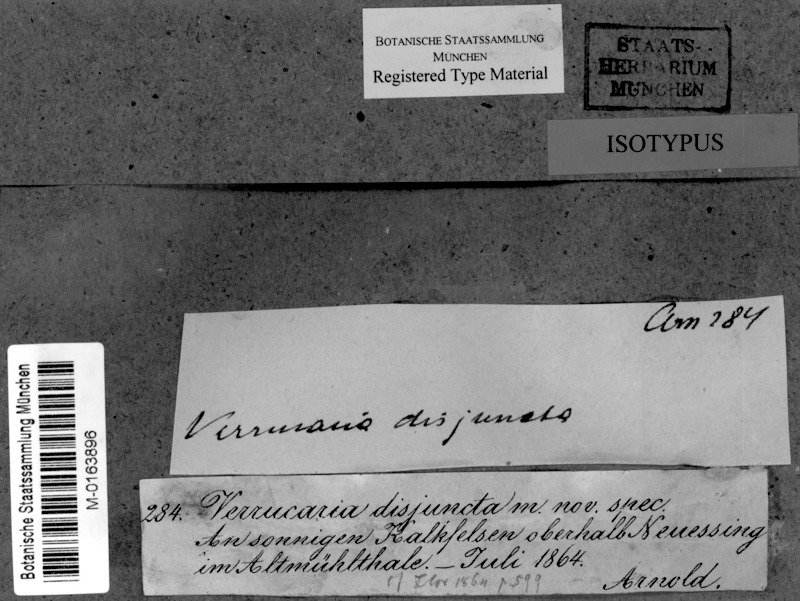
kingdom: Fungi
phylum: Ascomycota
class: Eurotiomycetes
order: Verrucariales
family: Verrucariaceae
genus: Parabagliettoa
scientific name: Parabagliettoa disjuncta
